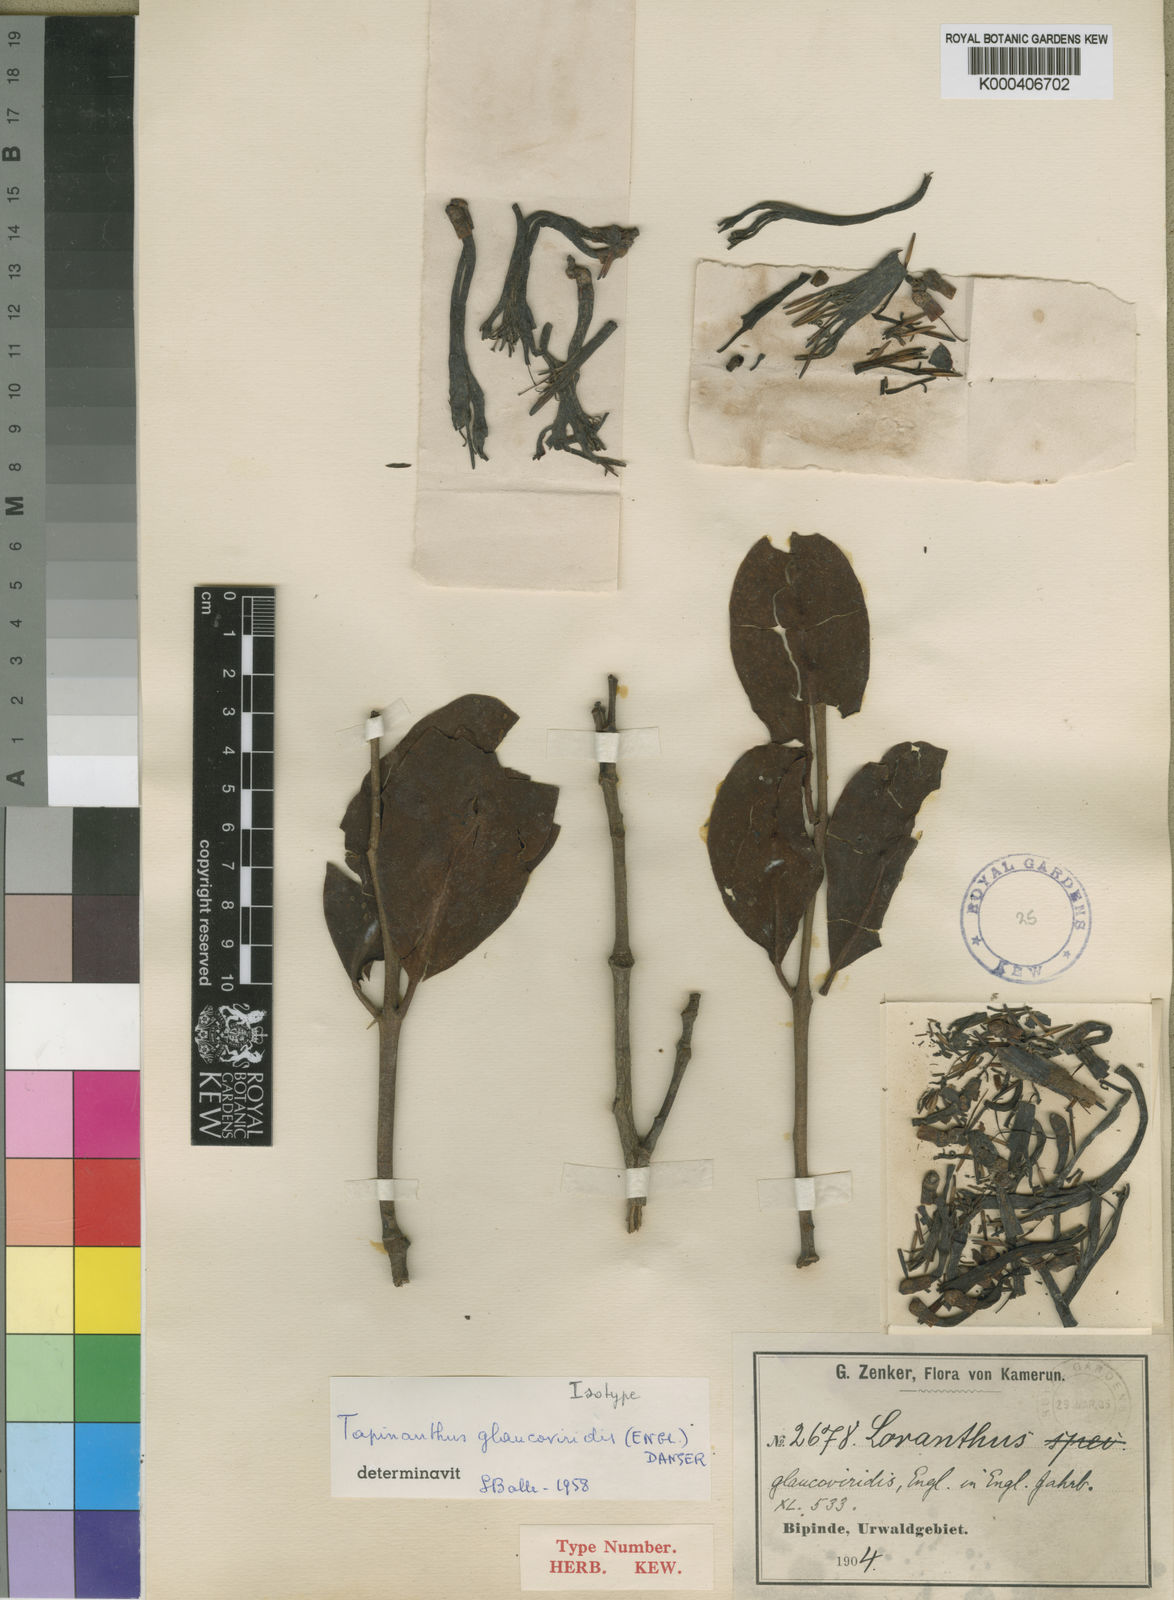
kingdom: Plantae
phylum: Tracheophyta
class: Magnoliopsida
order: Santalales
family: Loranthaceae
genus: Agelanthus
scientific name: Agelanthus glaucoviridis
